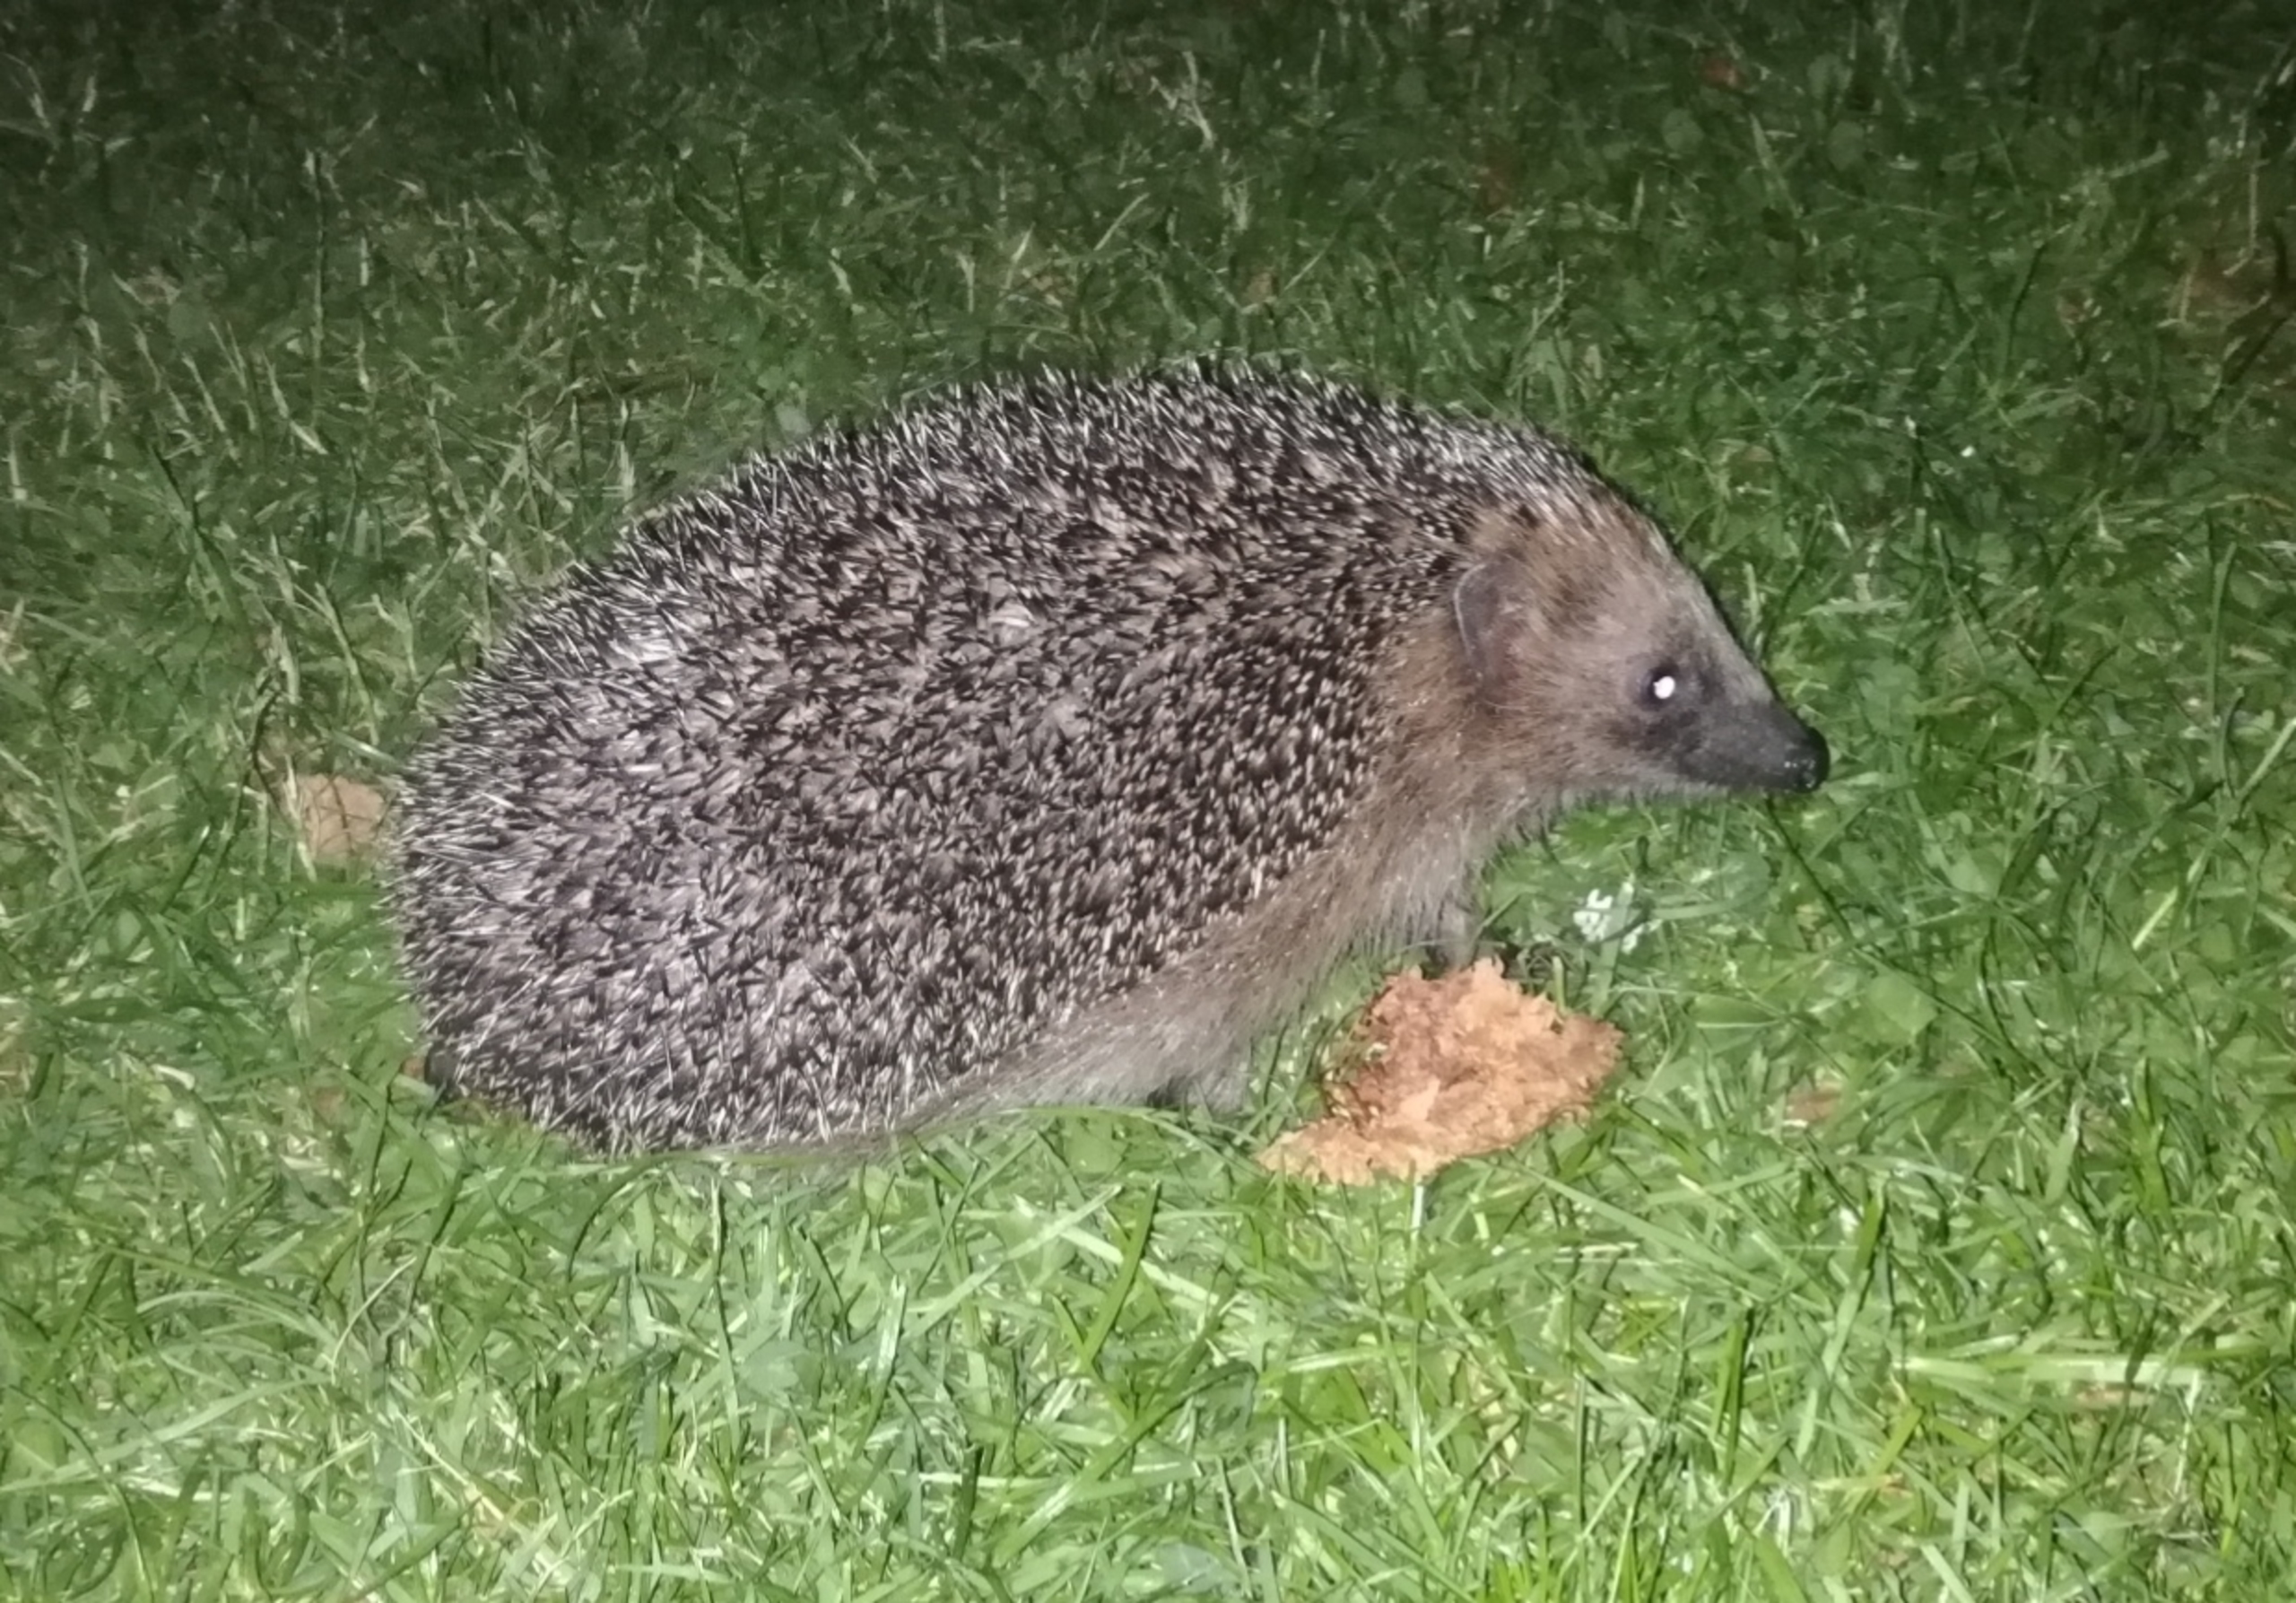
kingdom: Animalia
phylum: Chordata
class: Mammalia
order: Erinaceomorpha
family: Erinaceidae
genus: Erinaceus
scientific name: Erinaceus europaeus
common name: Pindsvin
